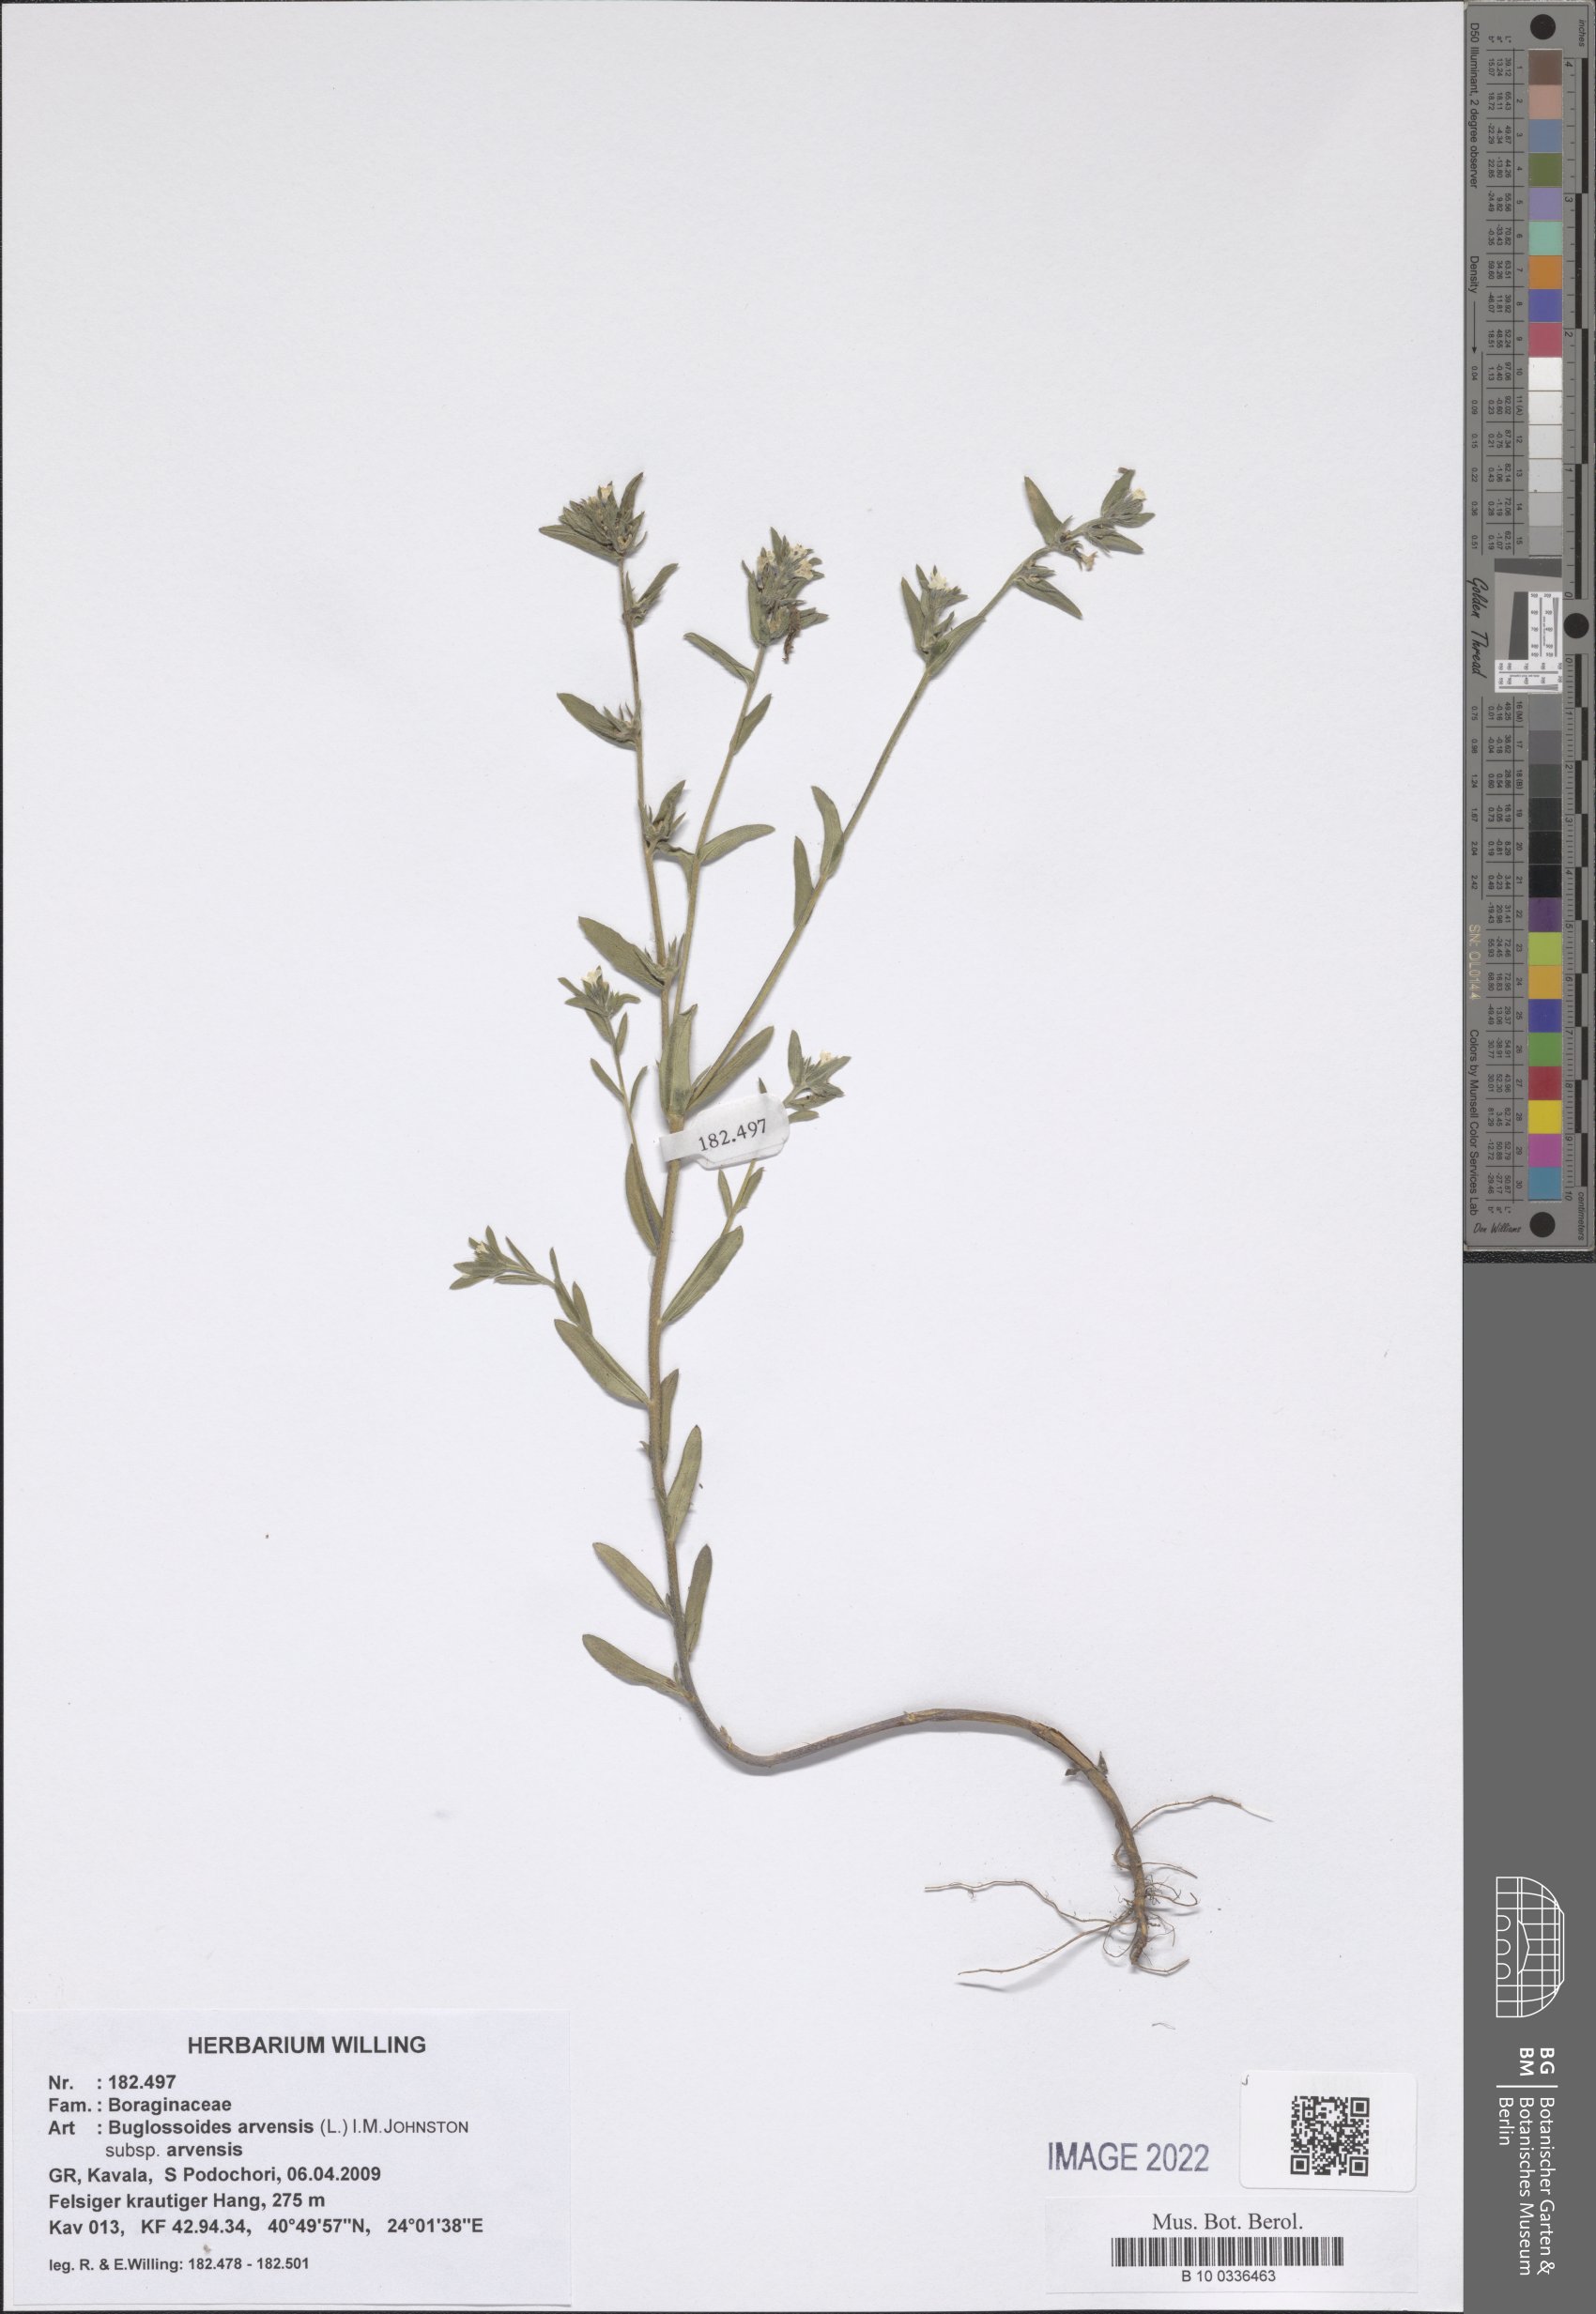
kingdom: Plantae
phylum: Tracheophyta
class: Magnoliopsida
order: Boraginales
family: Boraginaceae
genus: Buglossoides
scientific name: Buglossoides arvensis
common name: Corn gromwell
